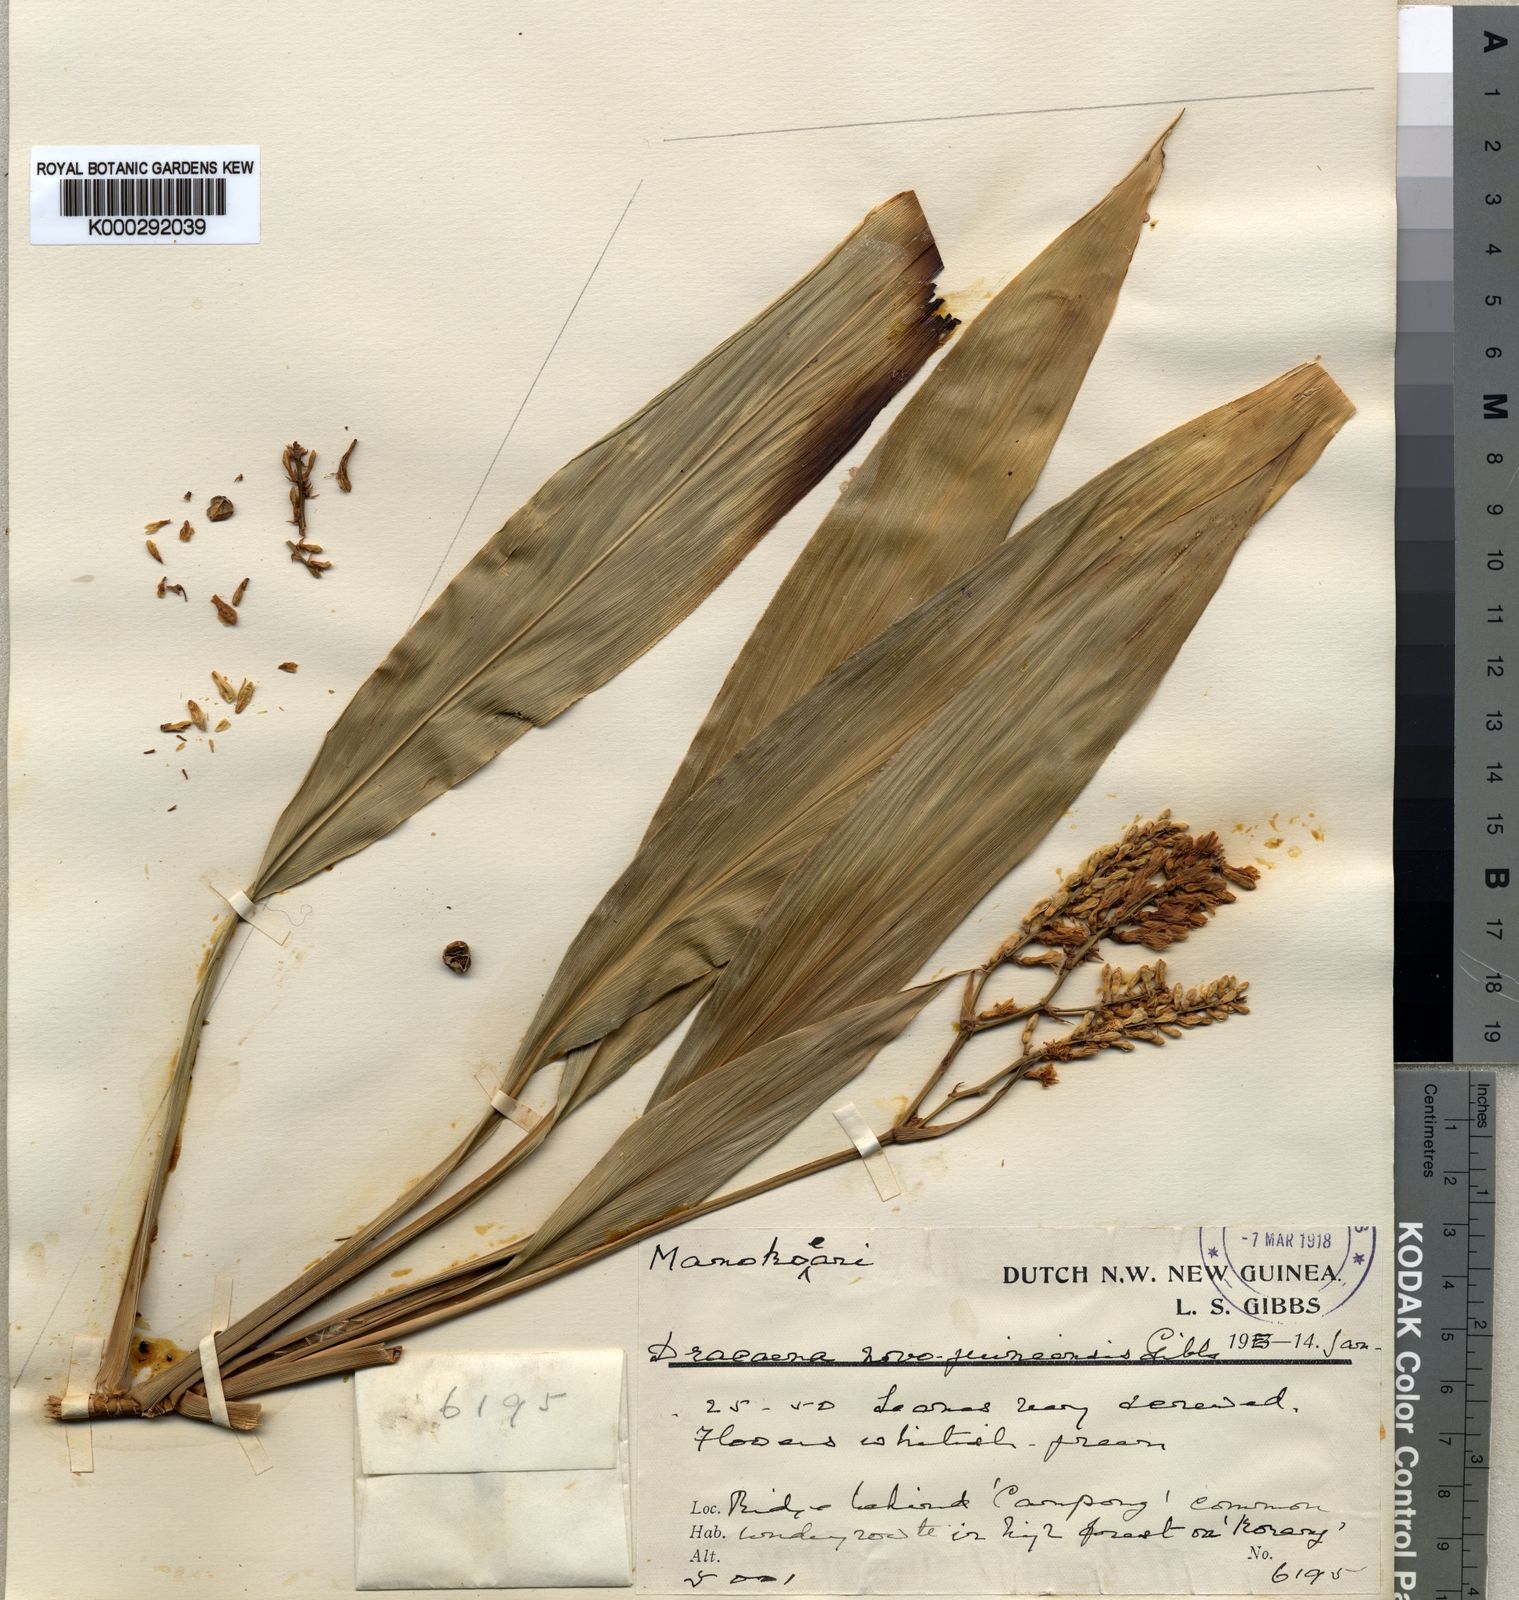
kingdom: Plantae
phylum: Tracheophyta
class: Liliopsida
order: Asparagales
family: Asparagaceae
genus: Dracaena
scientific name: Dracaena novoguineensis
